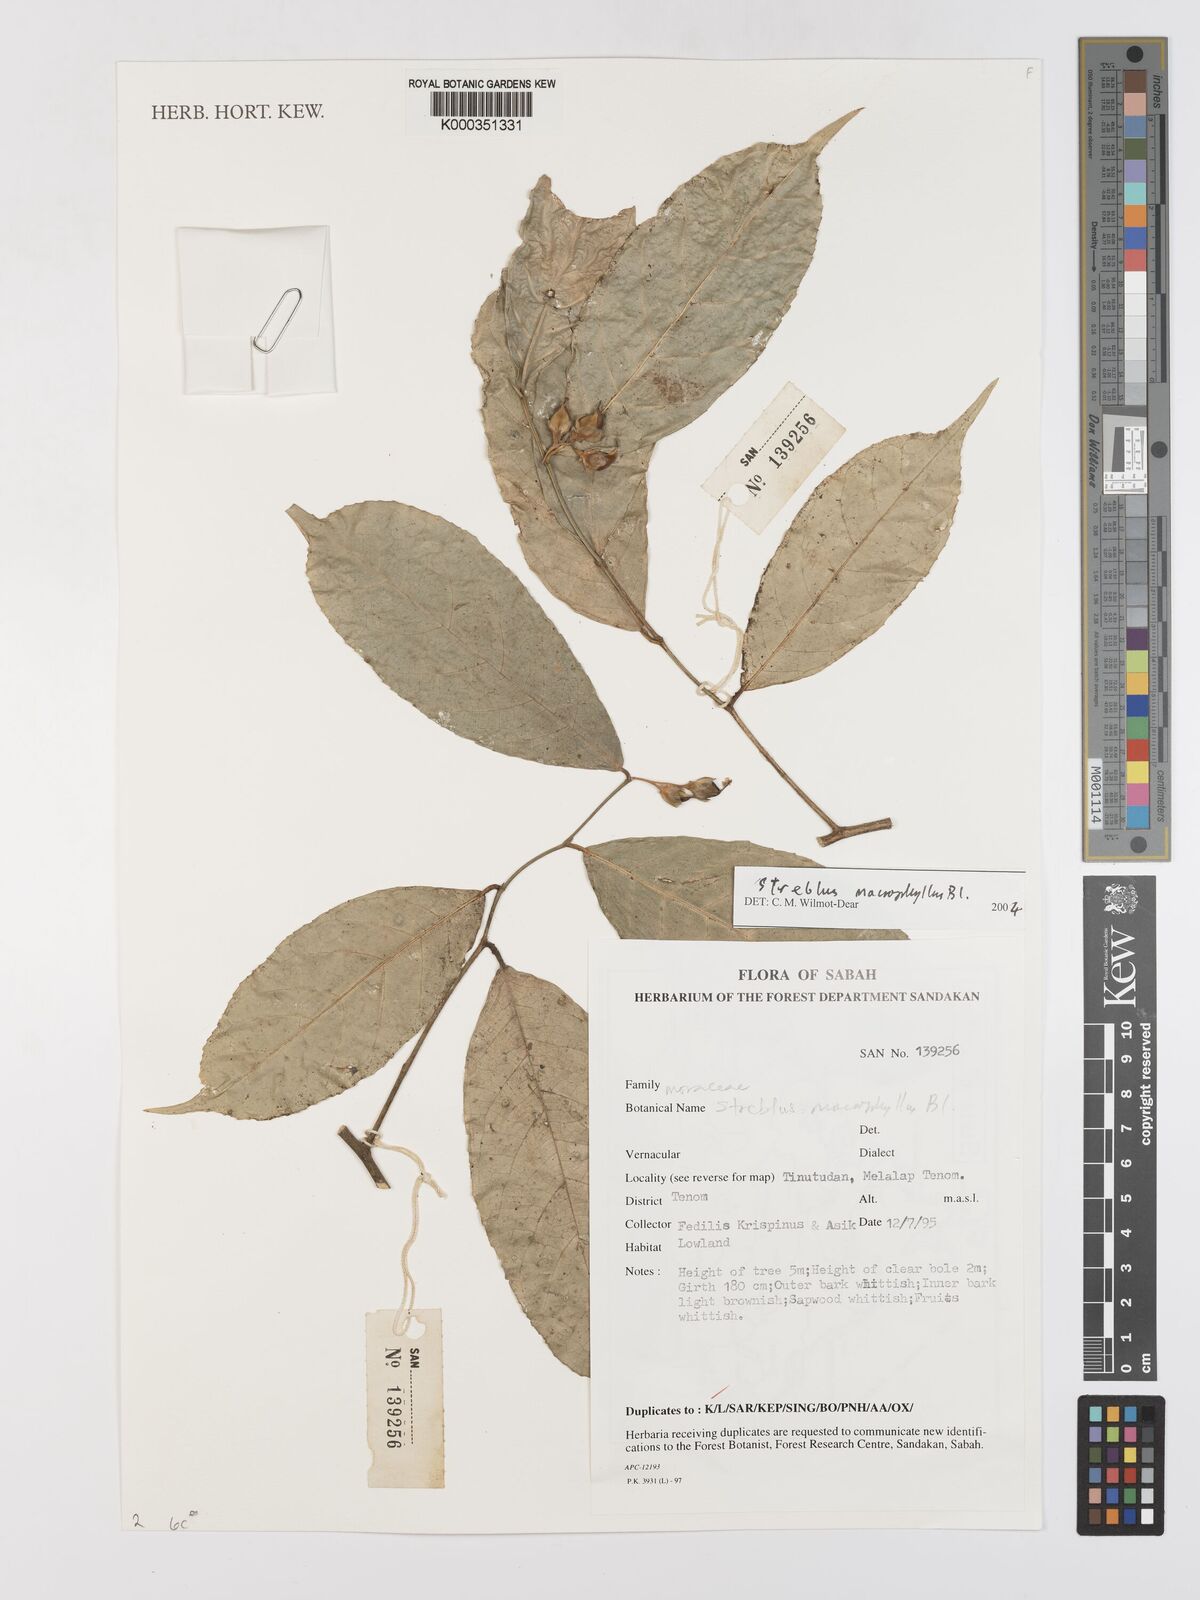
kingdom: Plantae
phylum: Tracheophyta
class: Magnoliopsida
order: Rosales
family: Moraceae
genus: Taxotrophis
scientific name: Taxotrophis macrophylla
